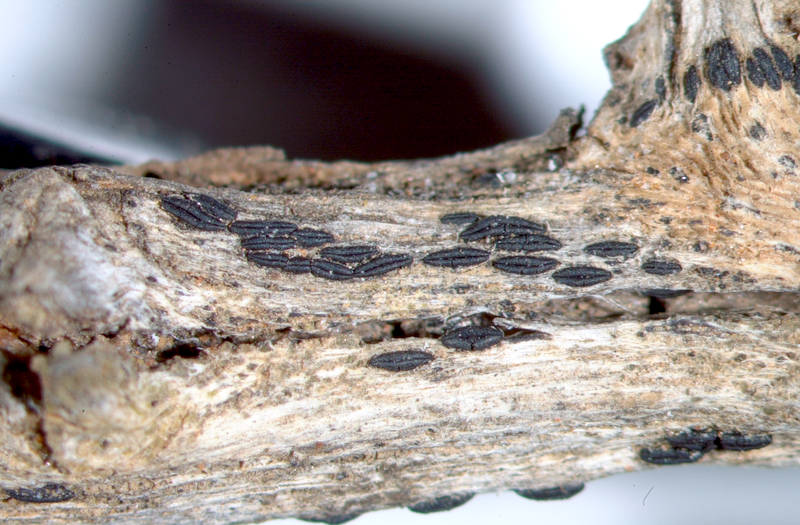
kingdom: Fungi
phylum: Ascomycota
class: Arthoniomycetes
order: Arthoniales
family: Opegraphaceae
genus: Opegrapha
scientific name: Opegrapha
